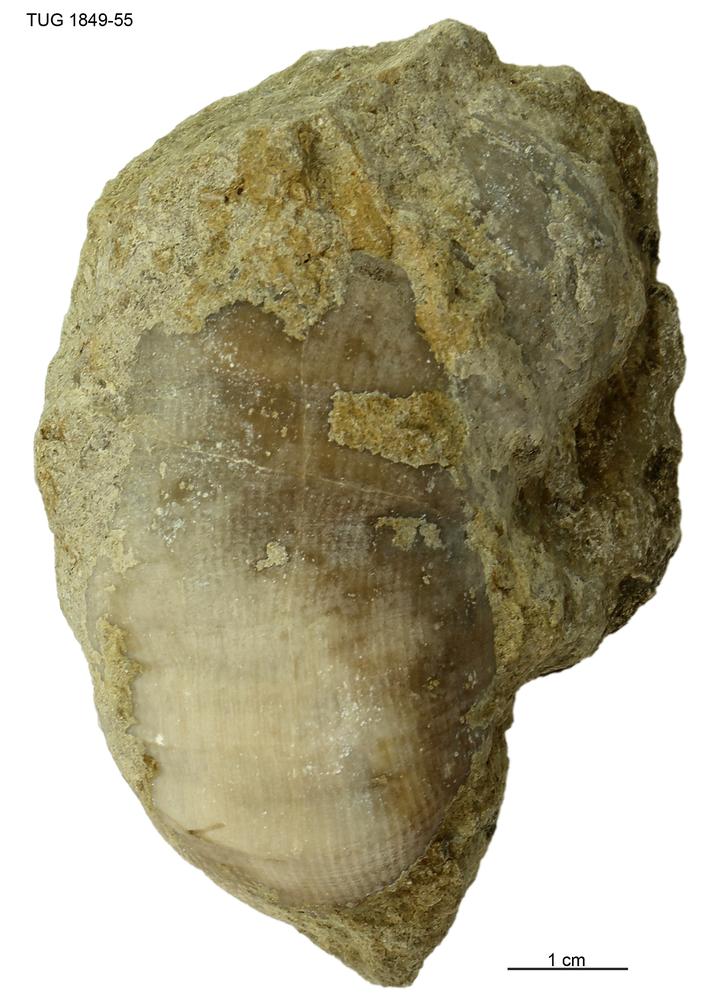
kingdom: Animalia
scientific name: Animalia
